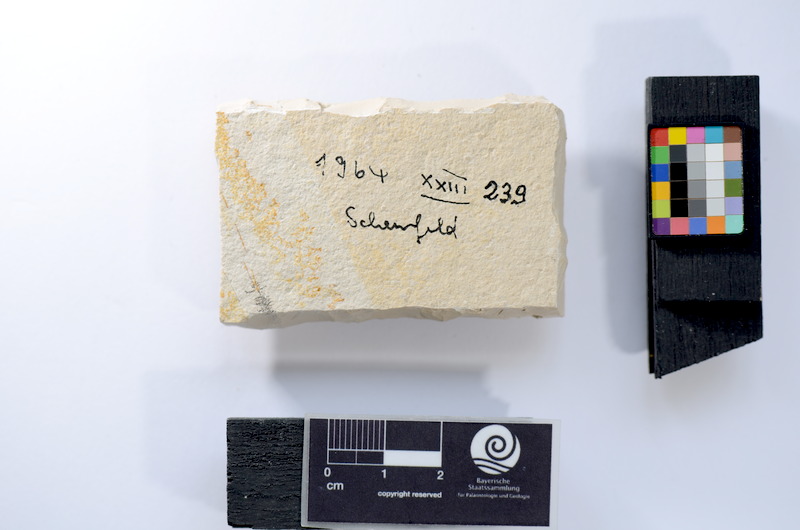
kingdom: Animalia
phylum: Chordata
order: Salmoniformes
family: Orthogonikleithridae
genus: Leptolepides
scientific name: Leptolepides
